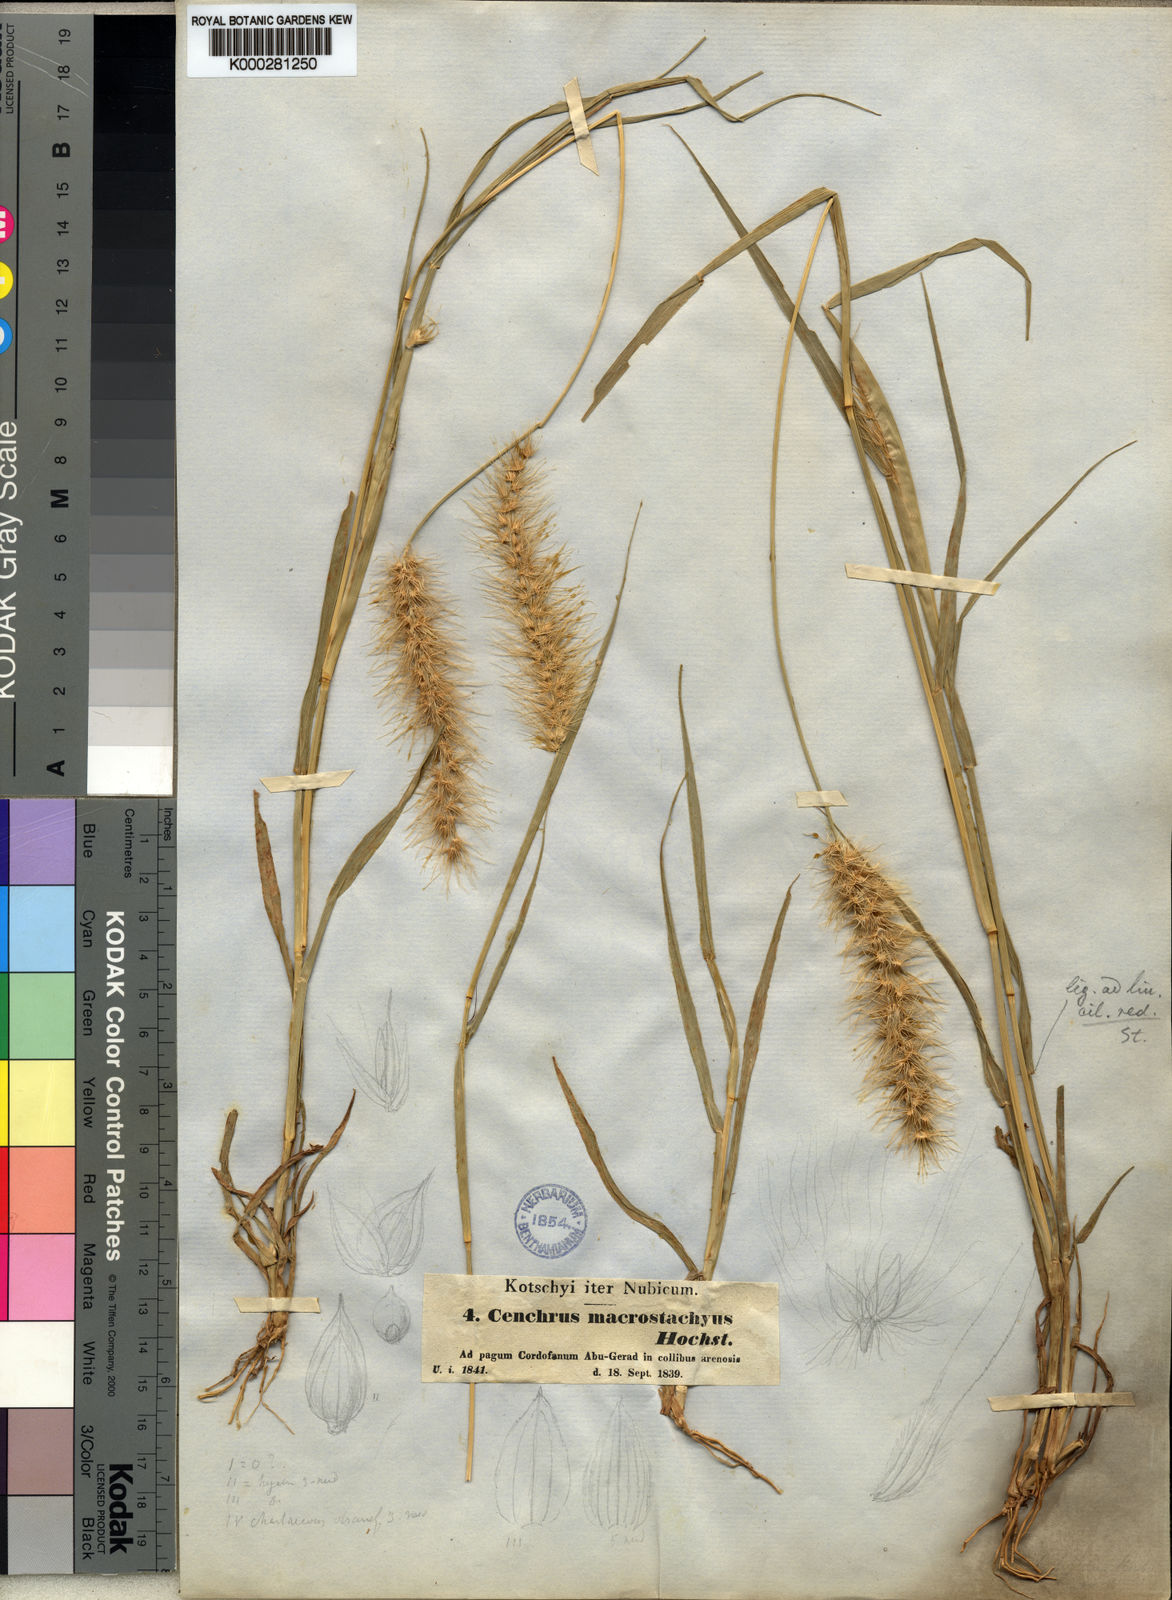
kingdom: Plantae
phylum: Tracheophyta
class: Liliopsida
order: Poales
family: Poaceae
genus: Cenchrus
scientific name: Cenchrus prieurii
